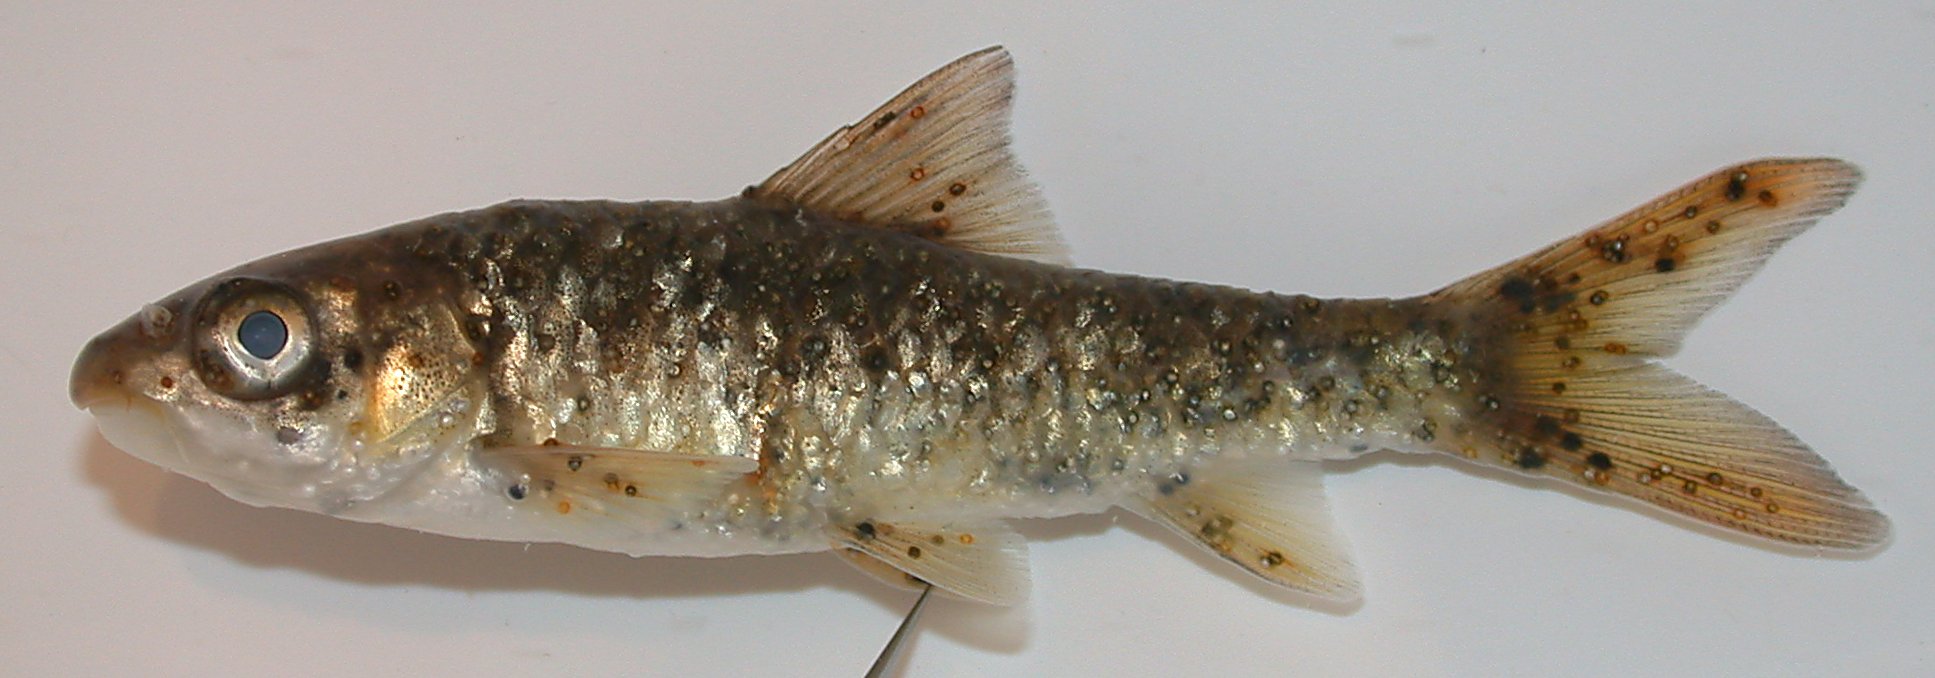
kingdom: Animalia
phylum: Chordata
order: Cypriniformes
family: Cyprinidae
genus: Labeobarbus
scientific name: Labeobarbus marequensis
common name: Largescale yellowfish
